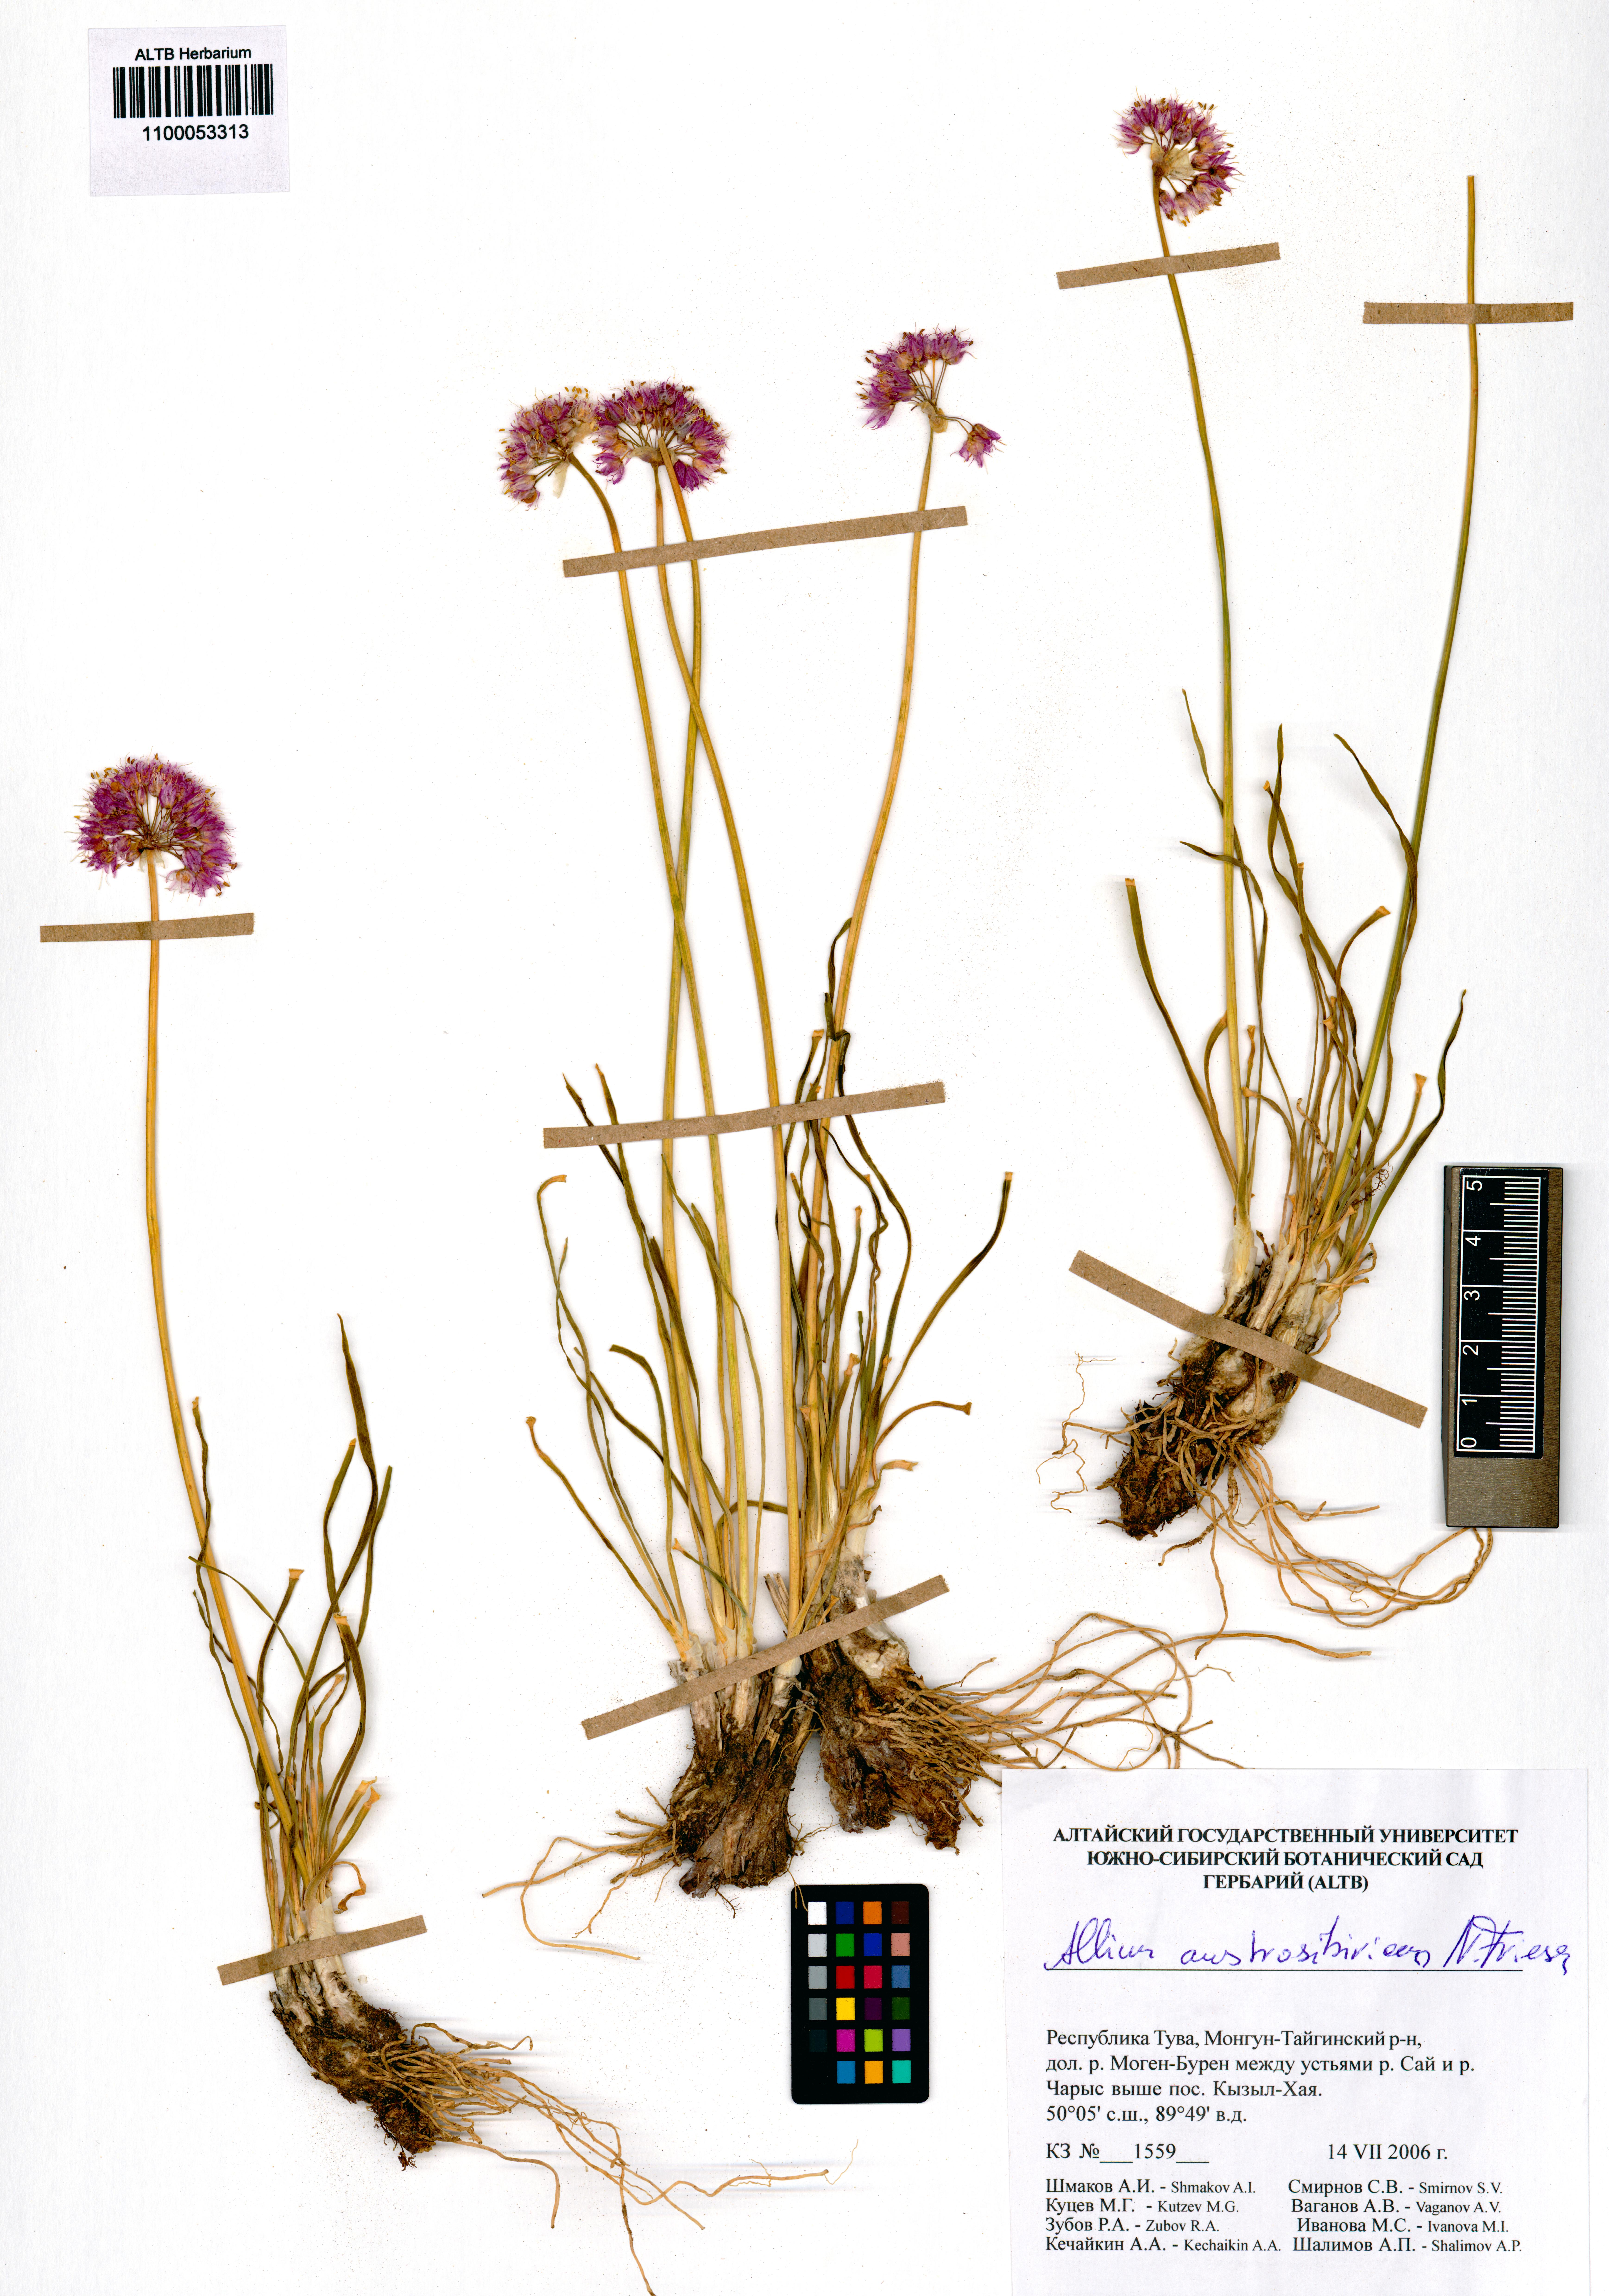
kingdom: Plantae
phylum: Tracheophyta
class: Liliopsida
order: Asparagales
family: Amaryllidaceae
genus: Allium
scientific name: Allium austrosibiricum
